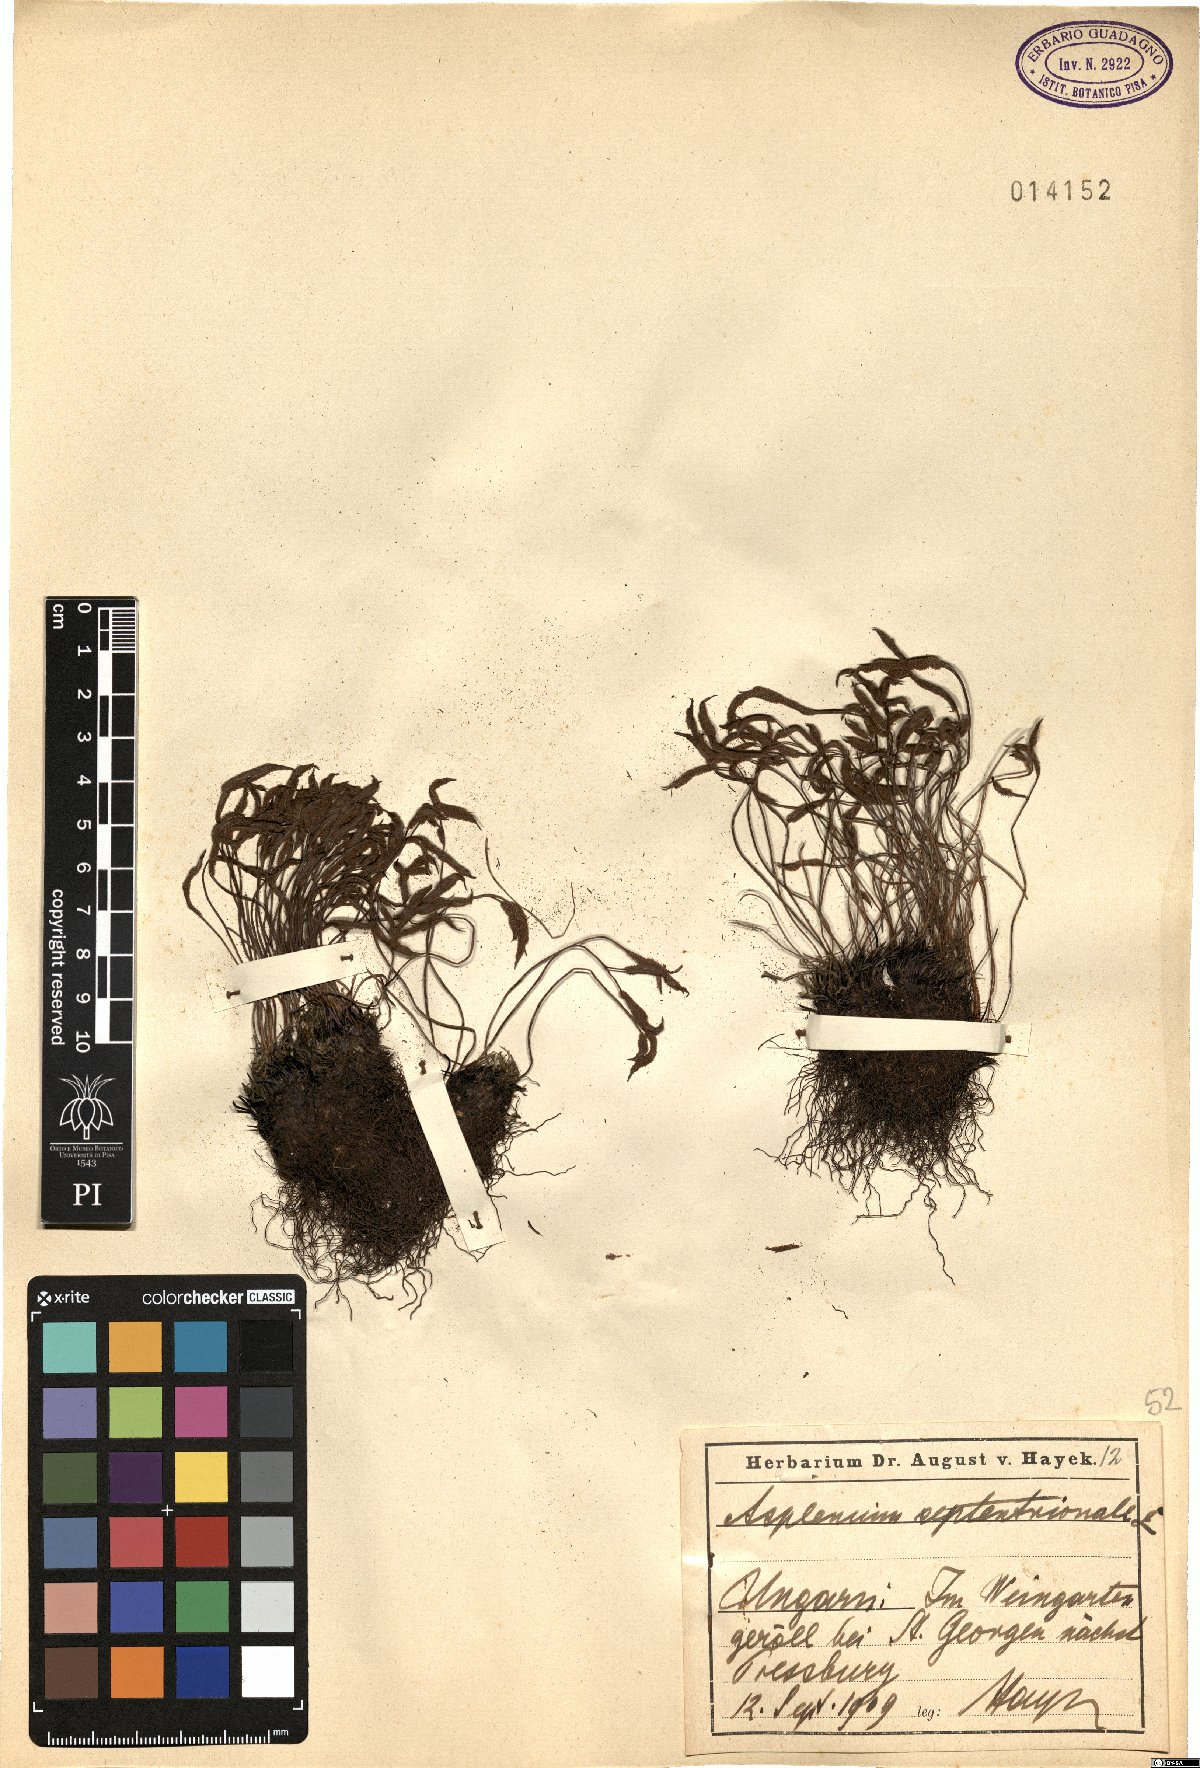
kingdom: Plantae
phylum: Tracheophyta
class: Polypodiopsida
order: Polypodiales
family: Aspleniaceae
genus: Asplenium
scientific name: Asplenium septentrionale
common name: Forked spleenwort
